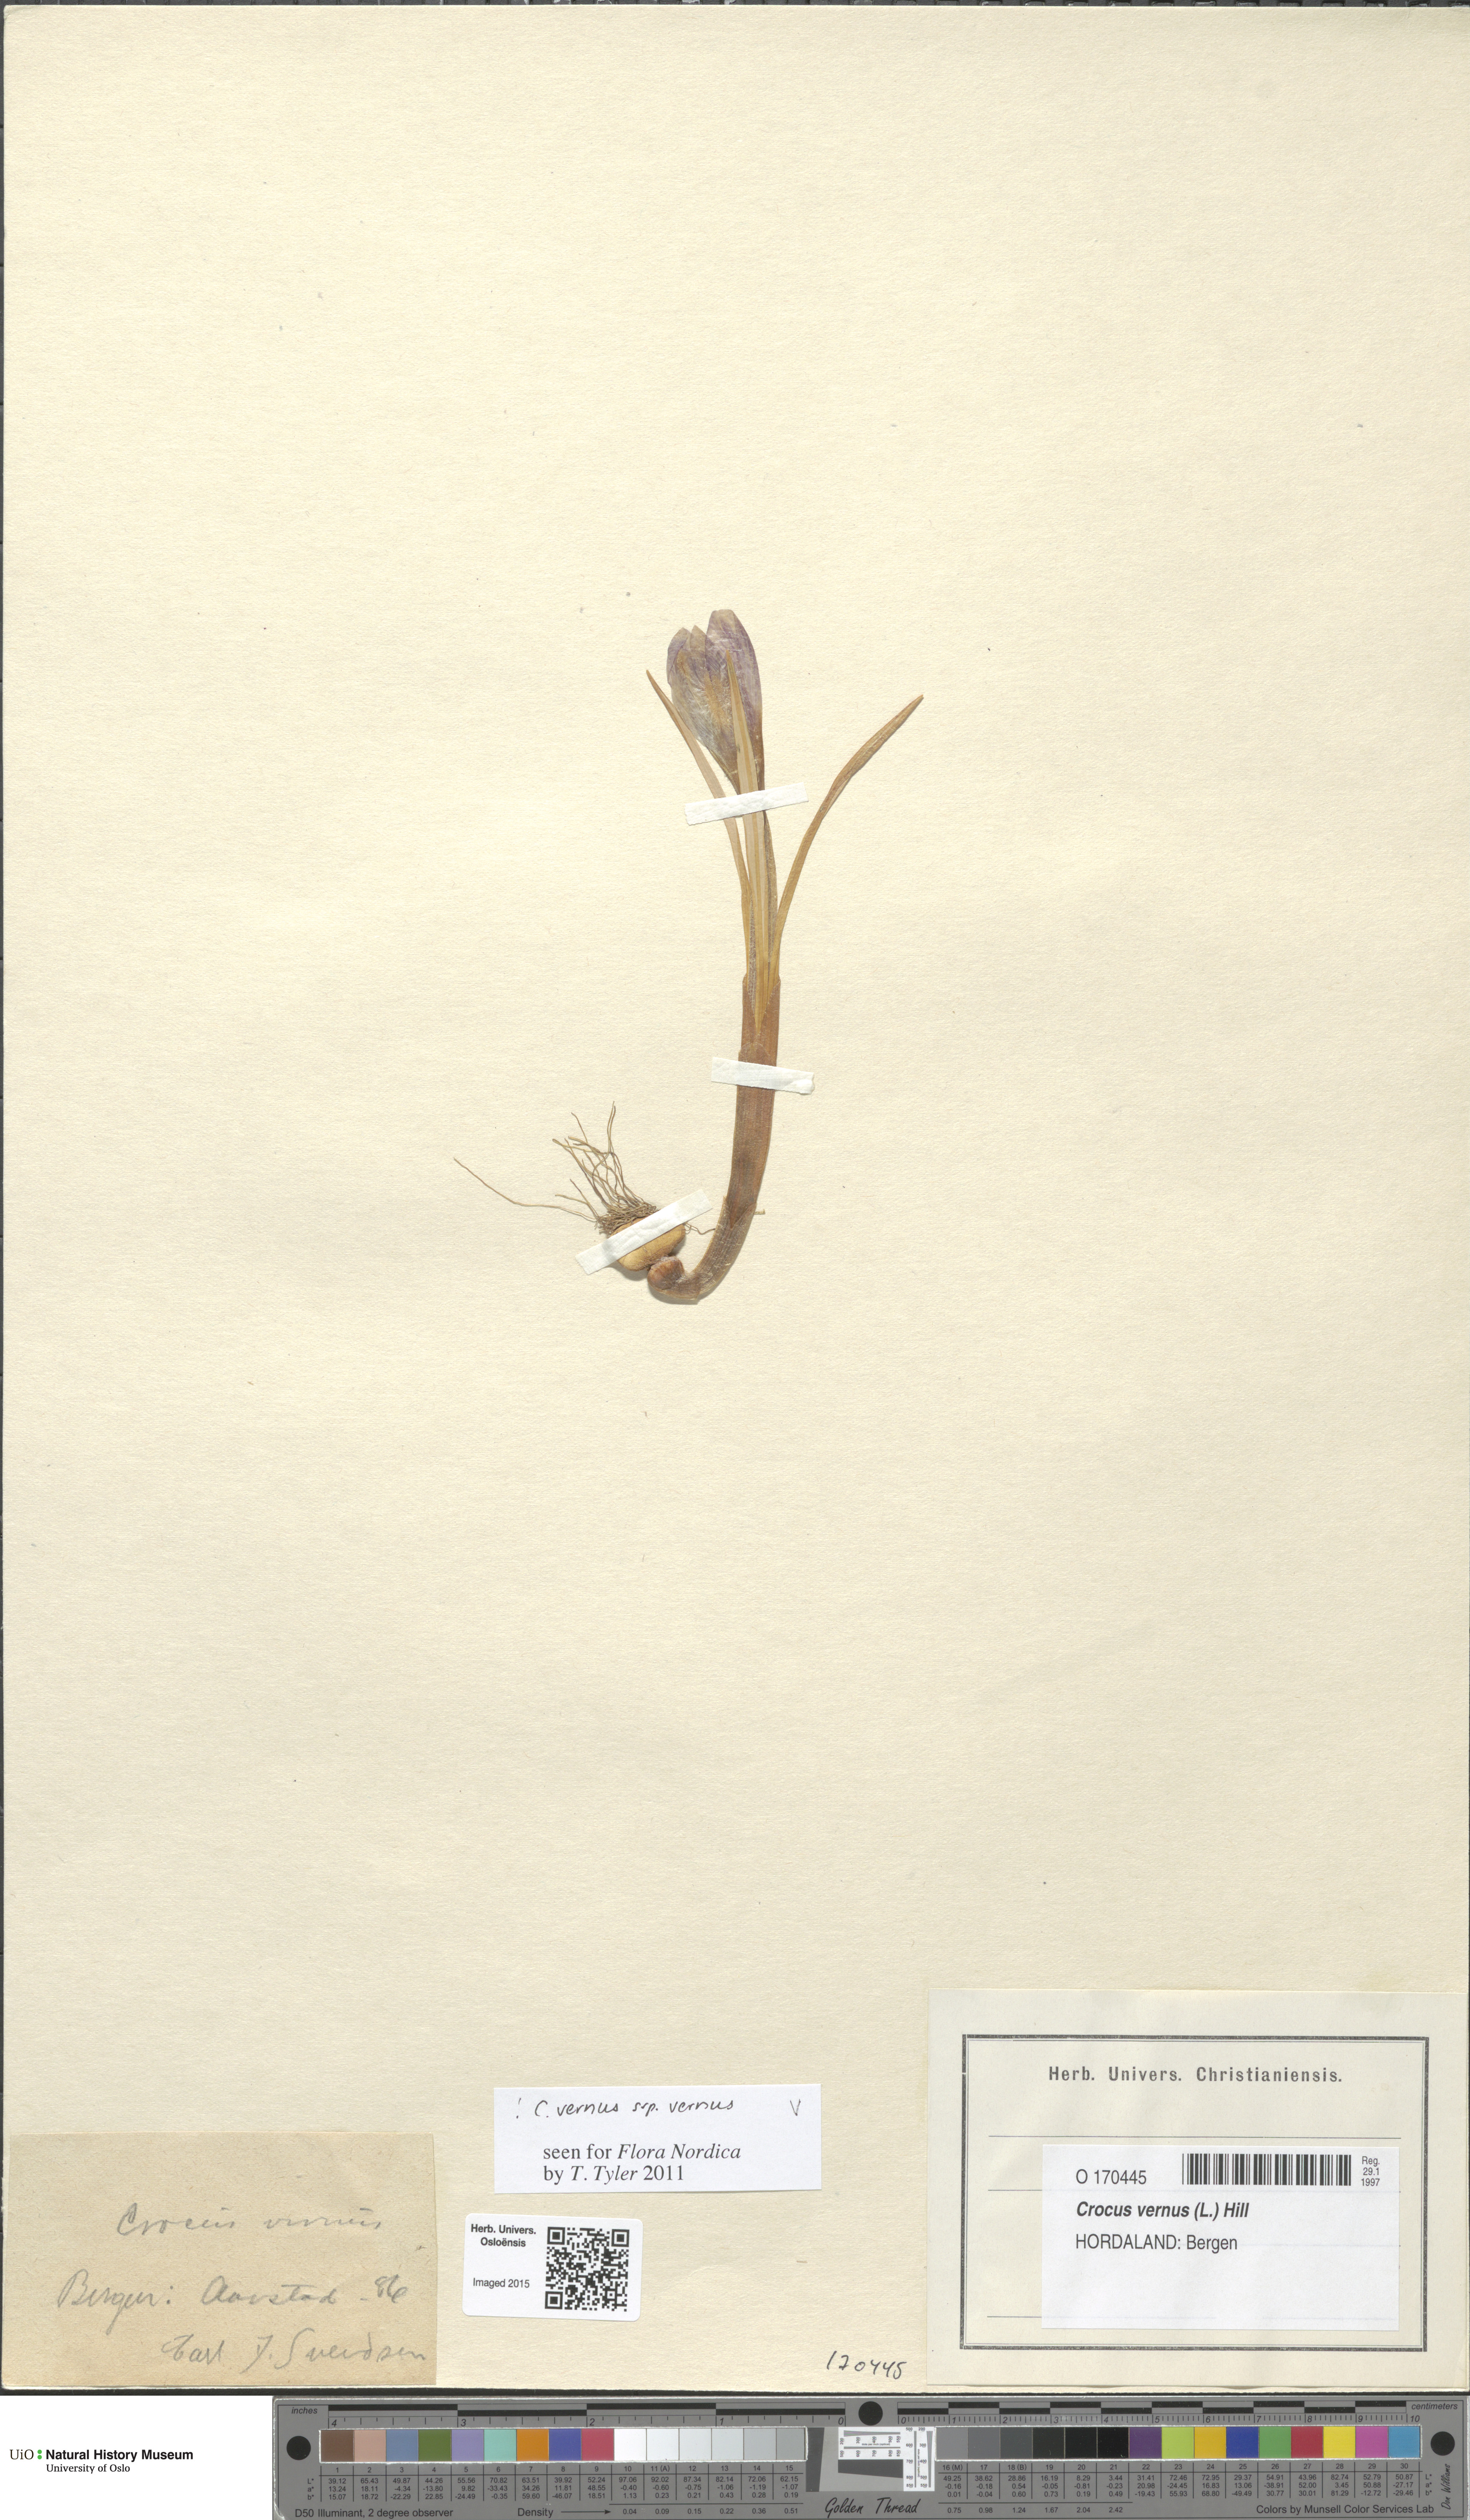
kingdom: Plantae
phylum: Tracheophyta
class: Liliopsida
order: Asparagales
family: Iridaceae
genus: Crocus
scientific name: Crocus vernus
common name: Spring crocus
